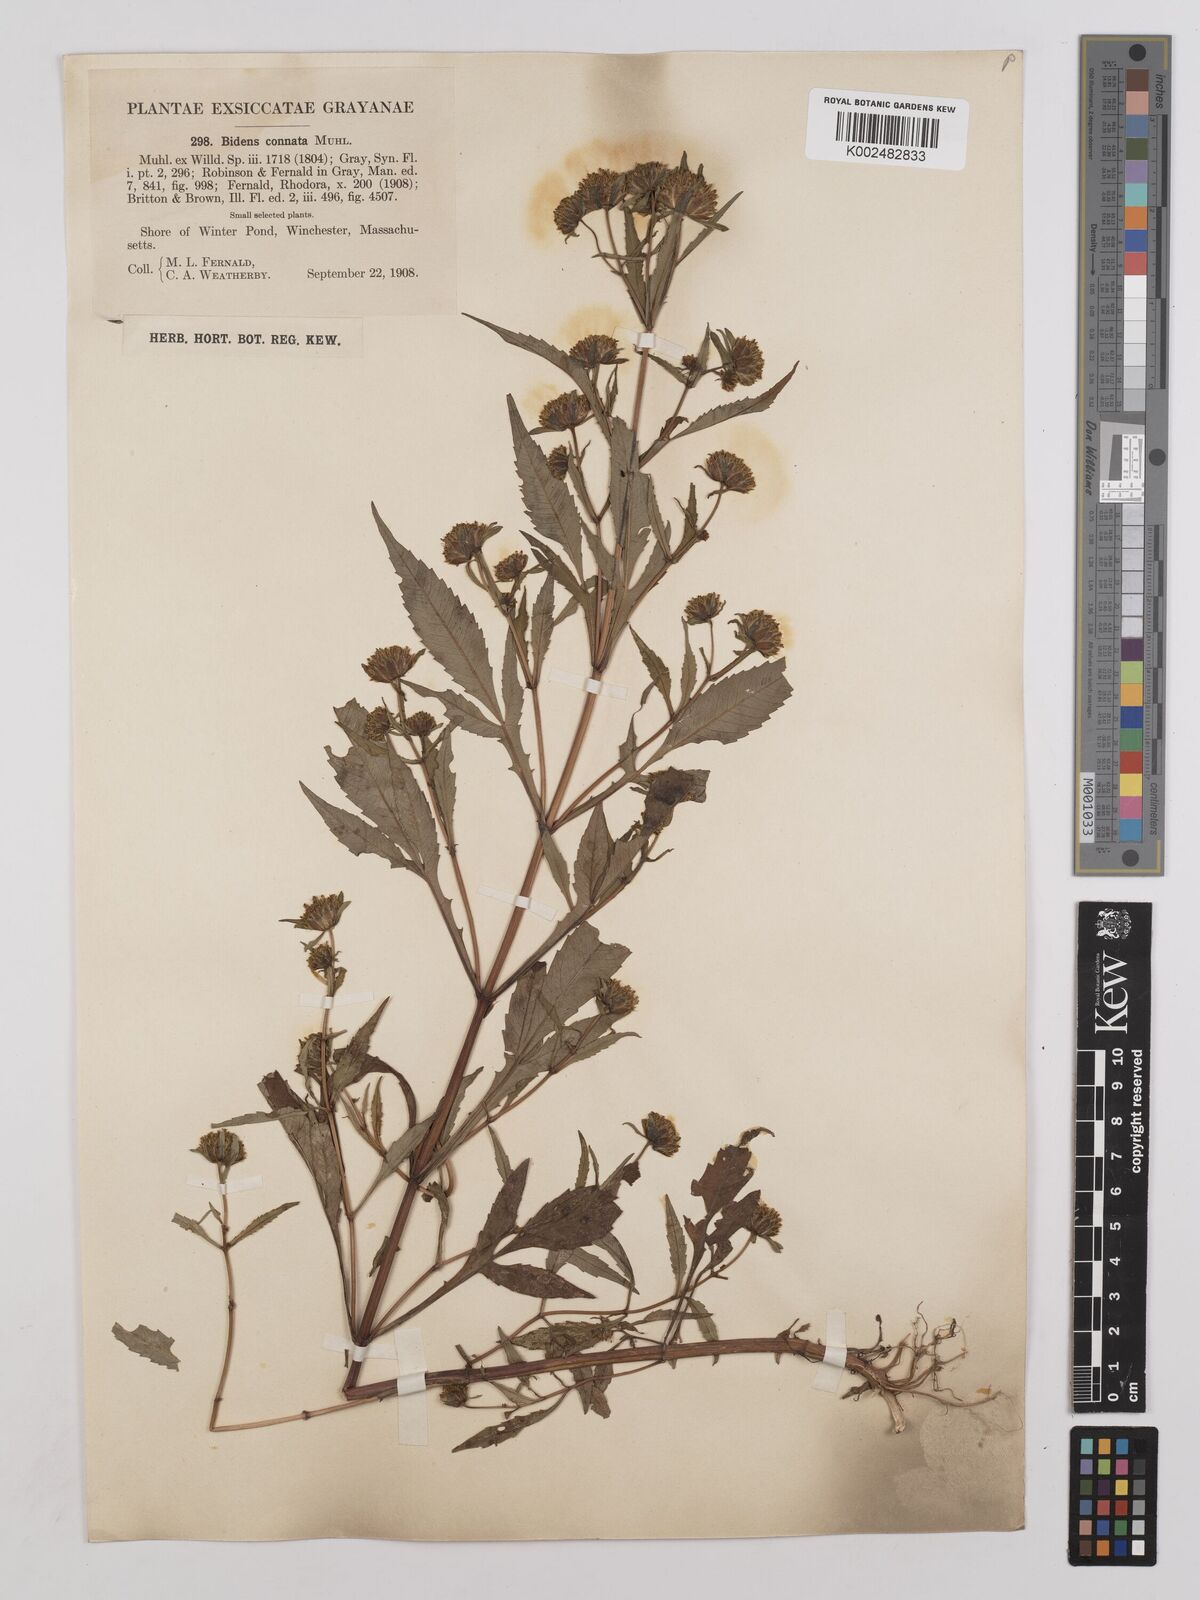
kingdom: Plantae
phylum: Tracheophyta
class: Magnoliopsida
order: Asterales
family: Asteraceae
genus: Bidens
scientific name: Bidens connata
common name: London bur-marigold
